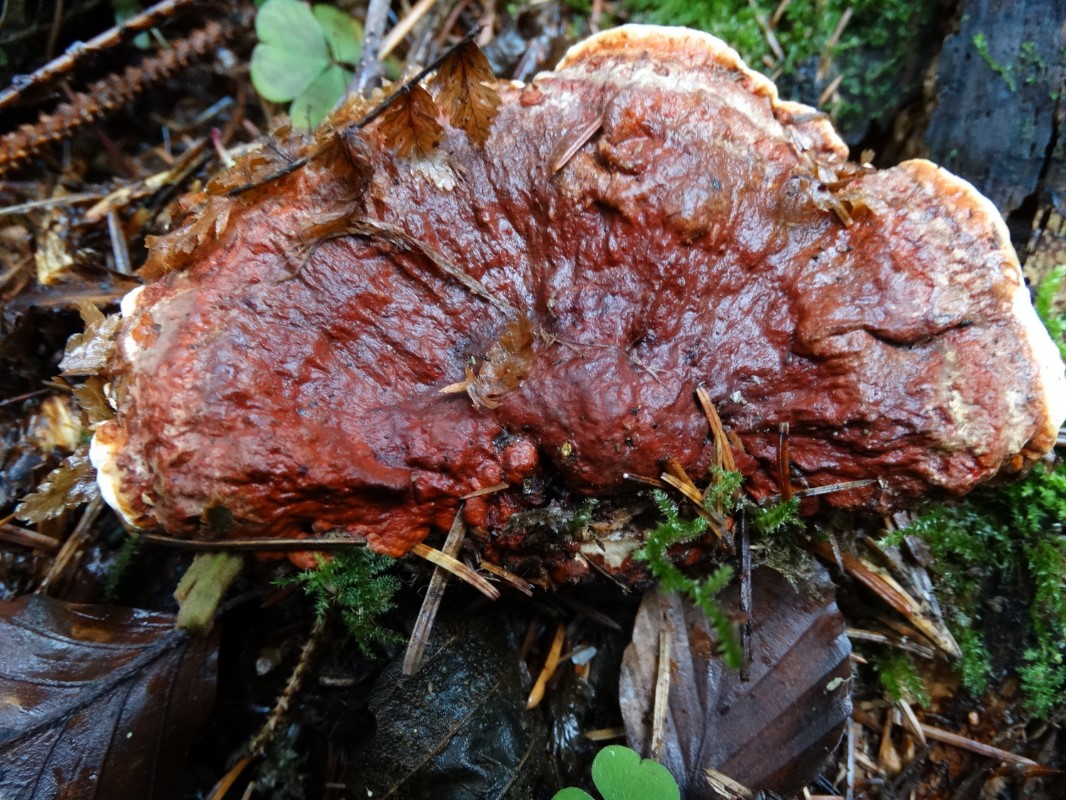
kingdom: Fungi
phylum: Basidiomycota
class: Agaricomycetes
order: Russulales
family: Bondarzewiaceae
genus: Heterobasidion
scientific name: Heterobasidion annosum
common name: almindelig rodfordærver
